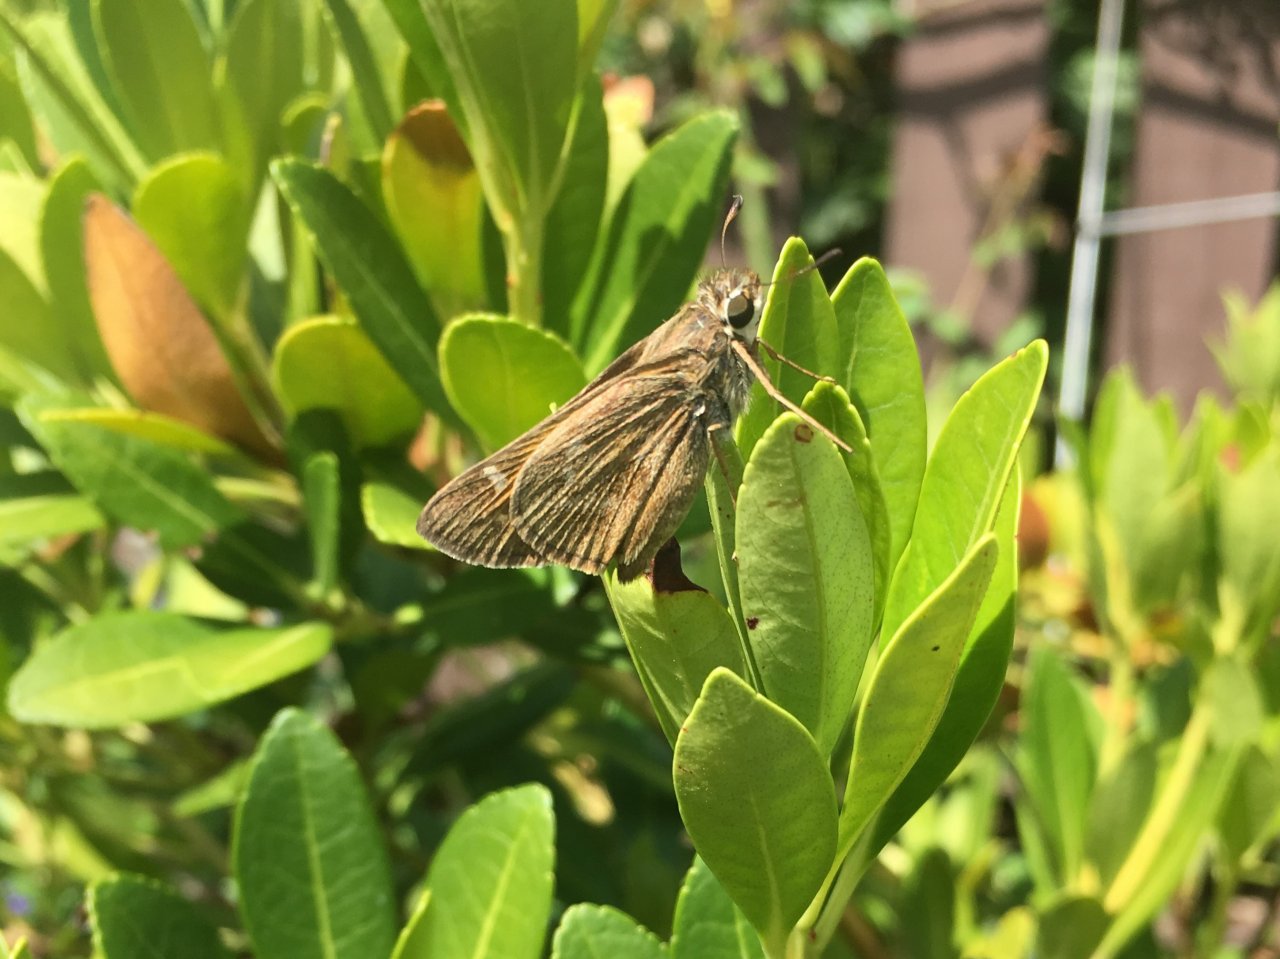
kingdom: Animalia
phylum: Arthropoda
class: Insecta
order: Lepidoptera
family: Hesperiidae
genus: Atalopedes
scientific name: Atalopedes campestris
